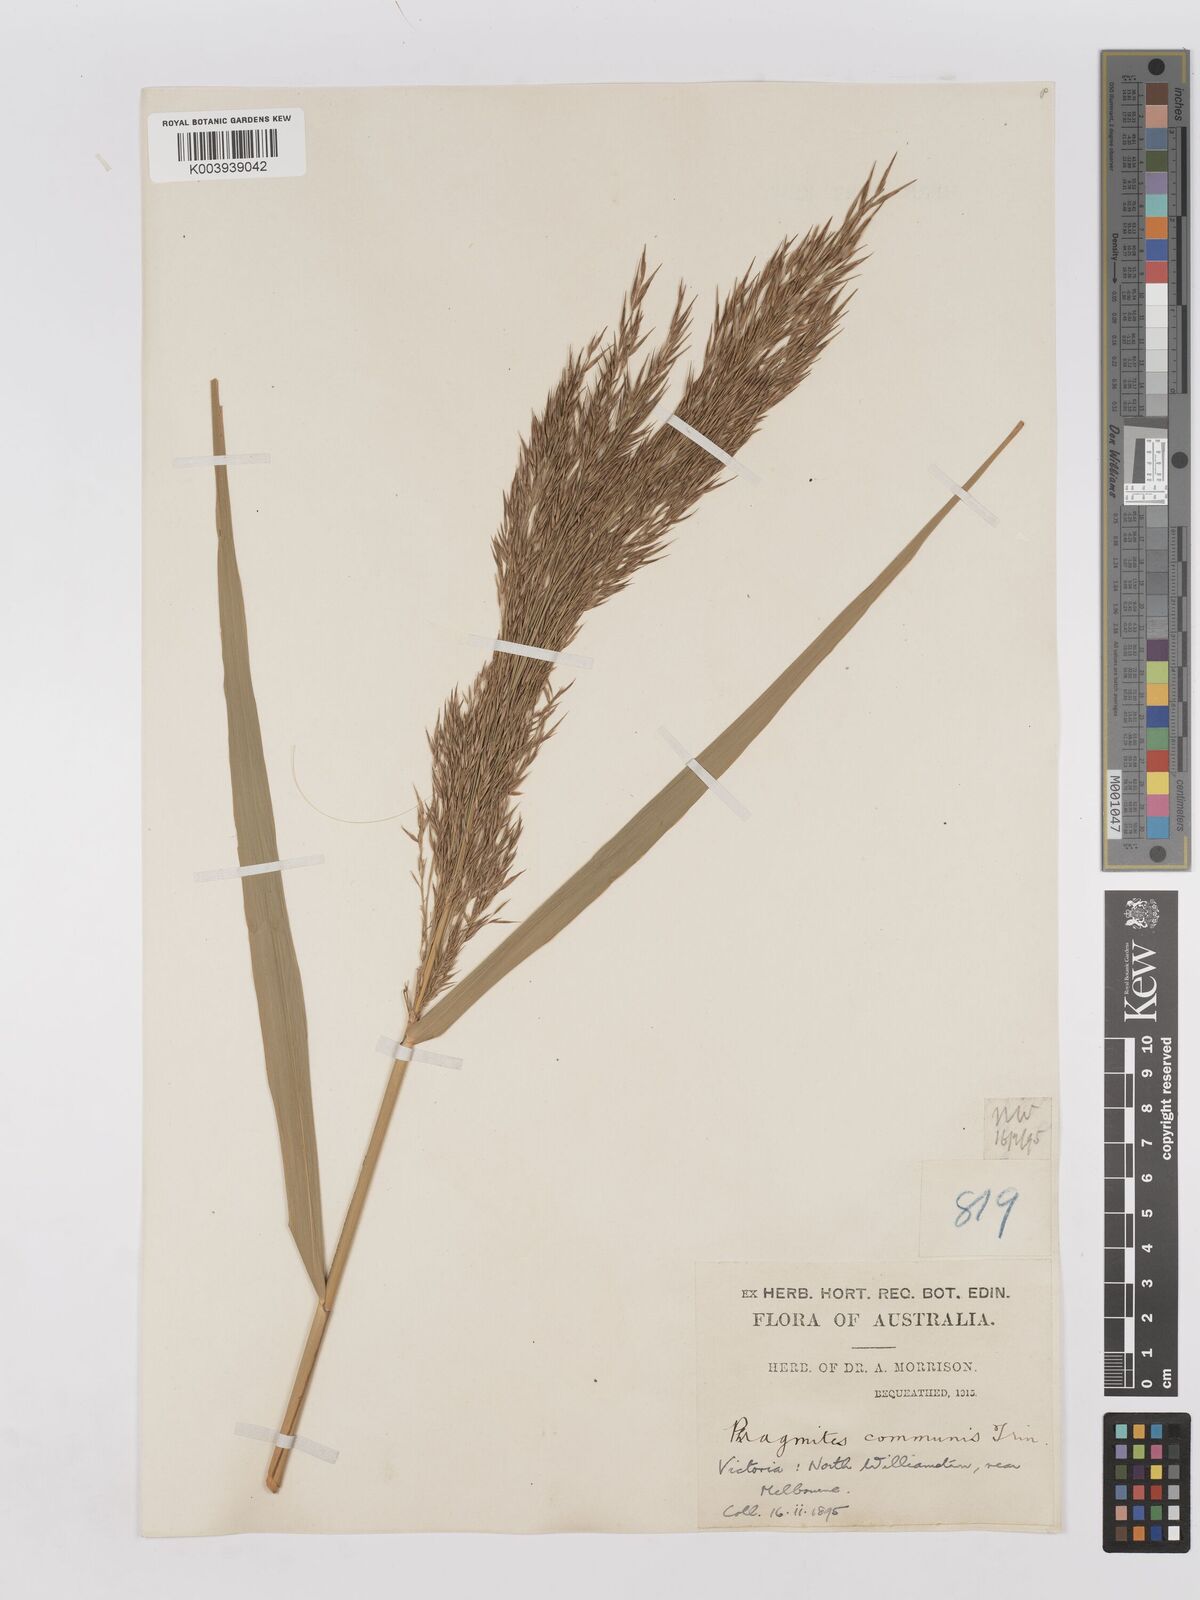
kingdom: Plantae
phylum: Tracheophyta
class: Liliopsida
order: Poales
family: Poaceae
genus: Phragmites
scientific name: Phragmites australis
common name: Common reed
